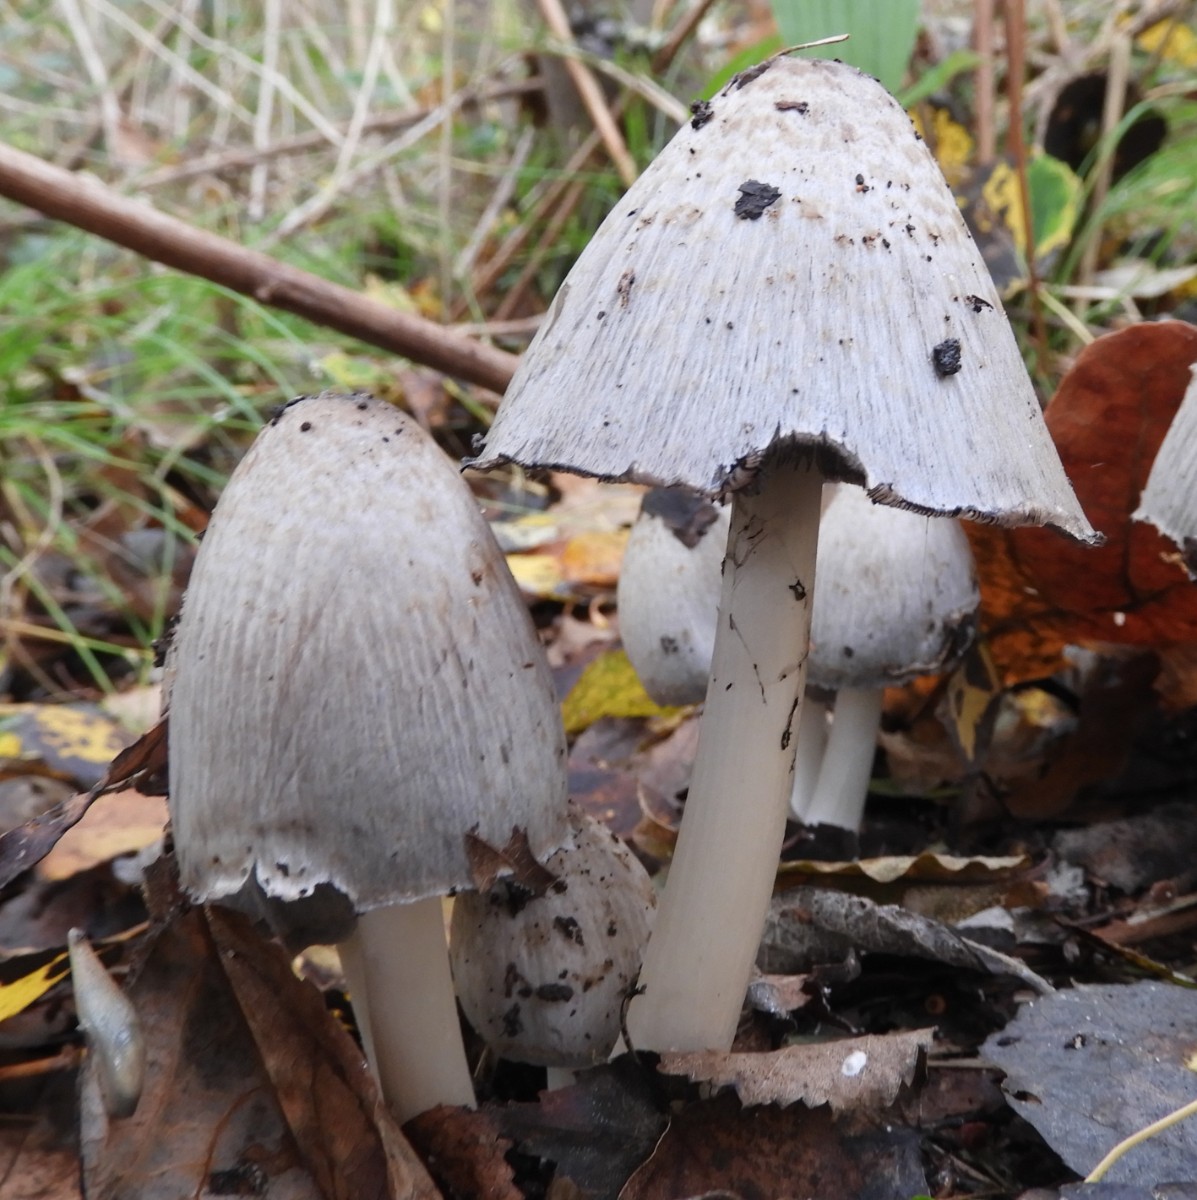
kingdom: Fungi
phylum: Basidiomycota
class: Agaricomycetes
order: Agaricales
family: Psathyrellaceae
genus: Coprinopsis
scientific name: Coprinopsis atramentaria
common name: almindelig blækhat
